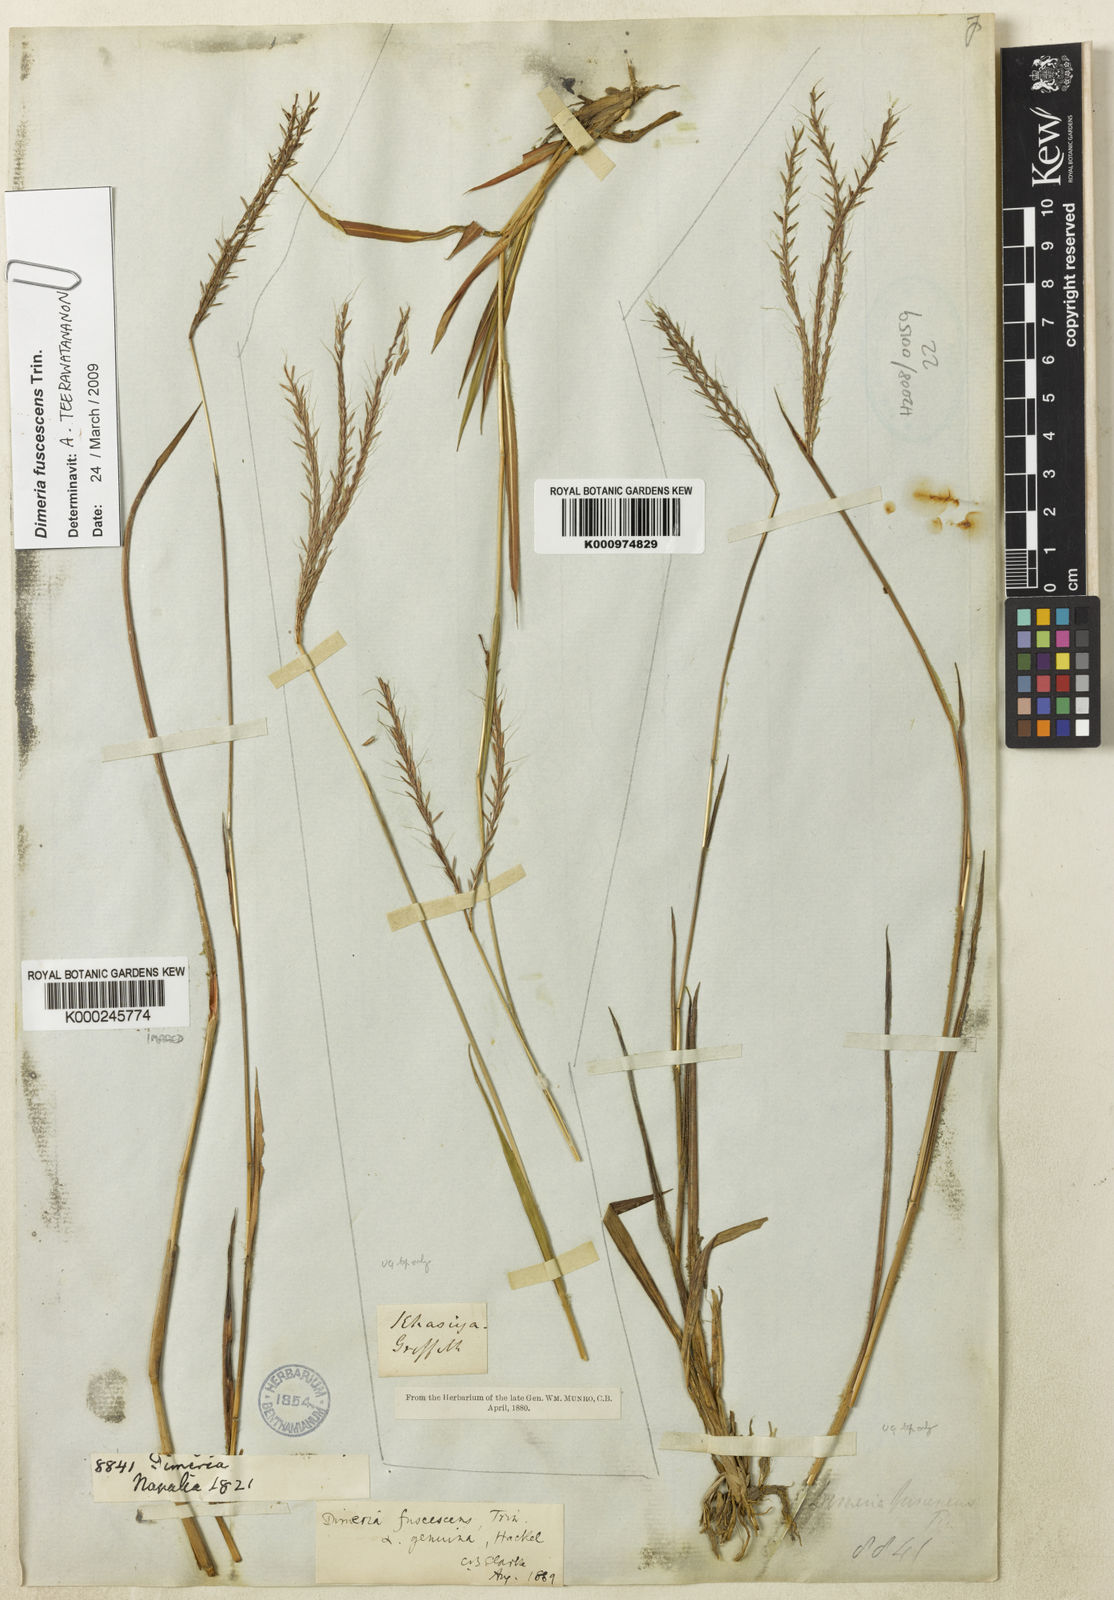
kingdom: Plantae
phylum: Tracheophyta
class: Liliopsida
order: Poales
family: Poaceae
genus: Dimeria
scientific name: Dimeria chloridiformis
